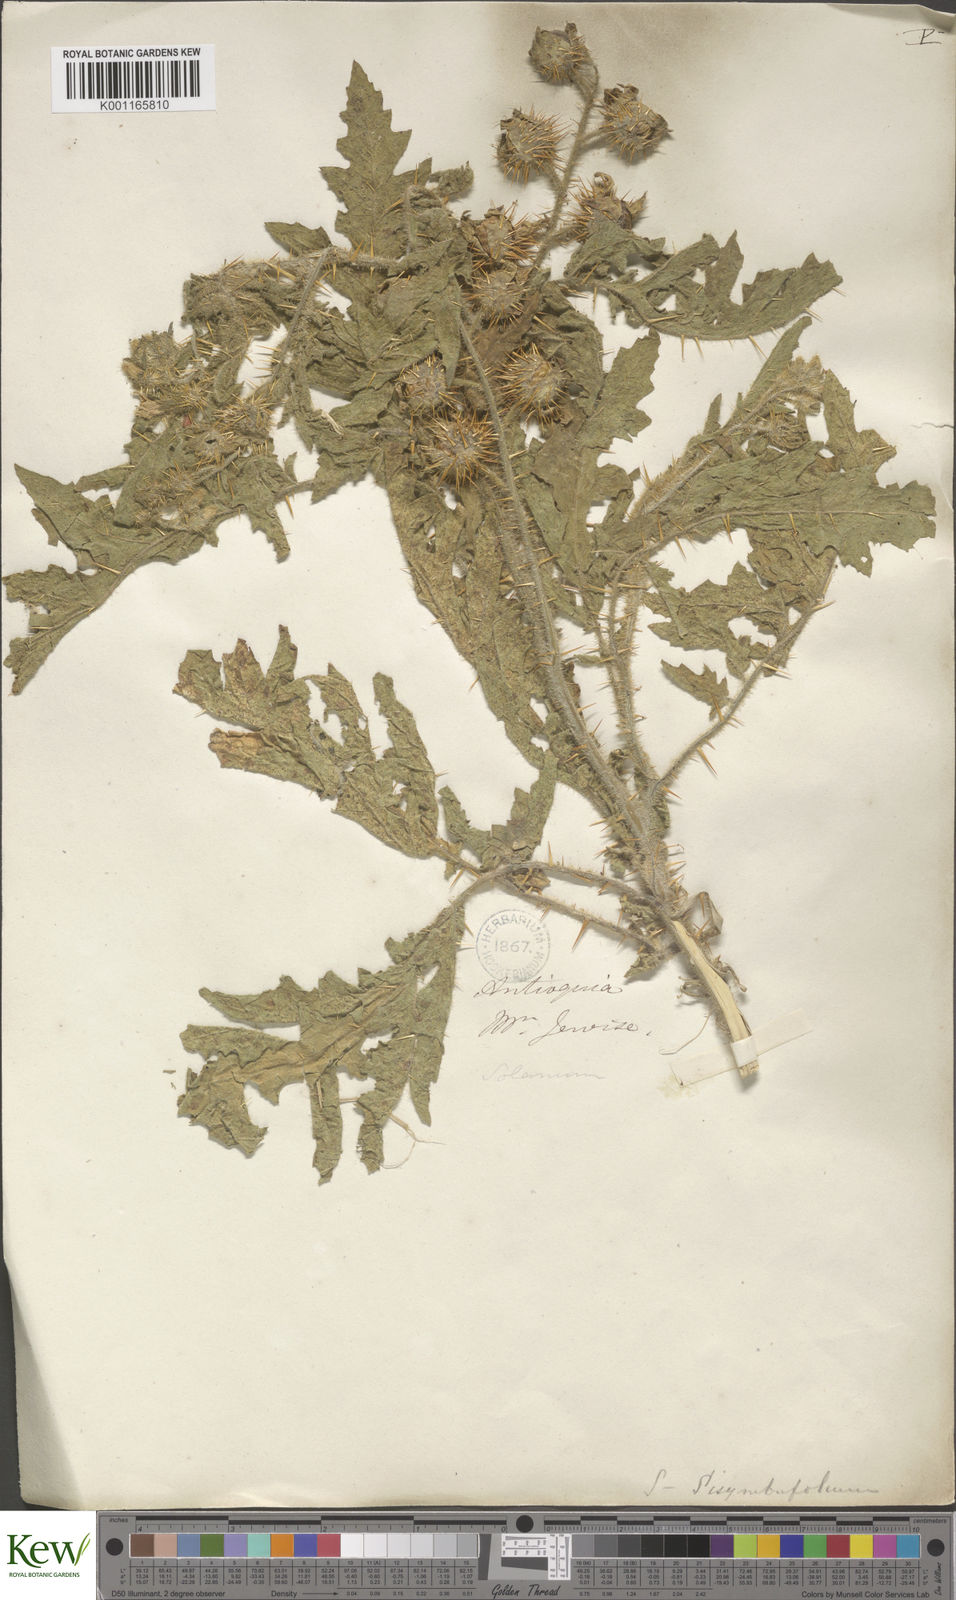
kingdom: Plantae
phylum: Tracheophyta
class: Magnoliopsida
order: Solanales
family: Solanaceae
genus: Solanum
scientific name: Solanum sisymbriifolium
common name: Red buffalo-bur
